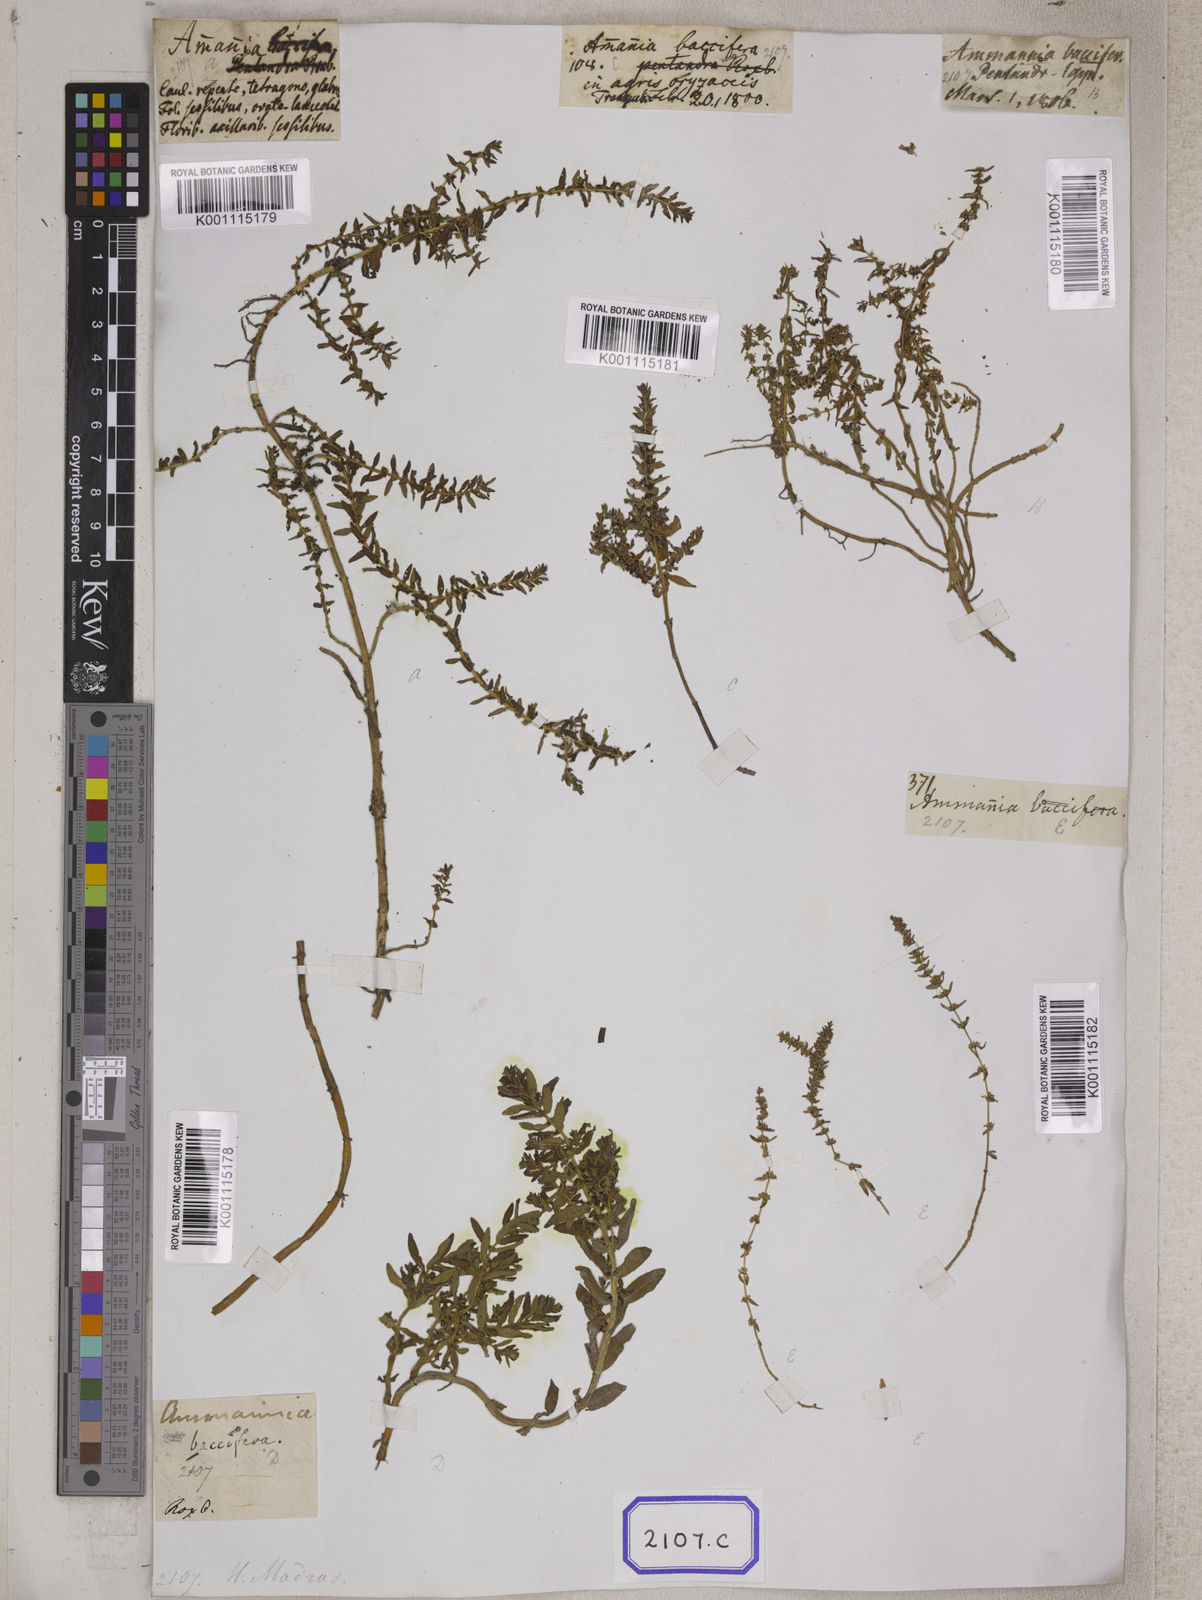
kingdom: Plantae
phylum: Tracheophyta
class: Magnoliopsida
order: Myrtales
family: Lythraceae
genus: Ammannia
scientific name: Ammannia
